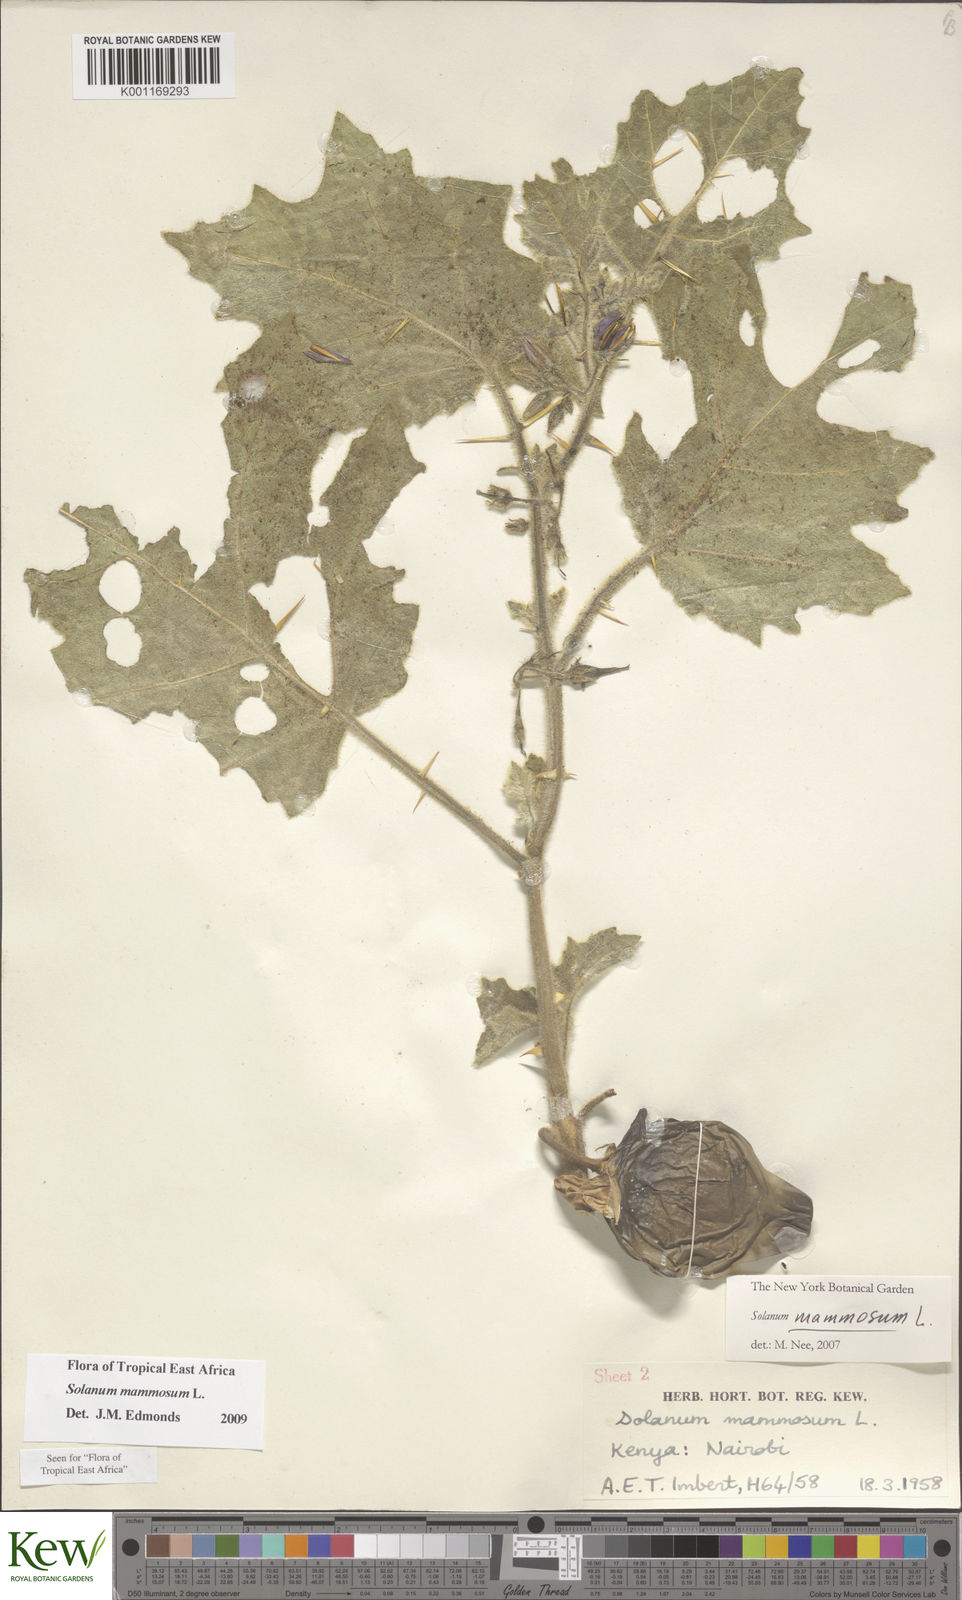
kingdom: Plantae
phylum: Tracheophyta
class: Magnoliopsida
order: Solanales
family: Solanaceae
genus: Solanum
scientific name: Solanum mammosum
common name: Nipple fruit
